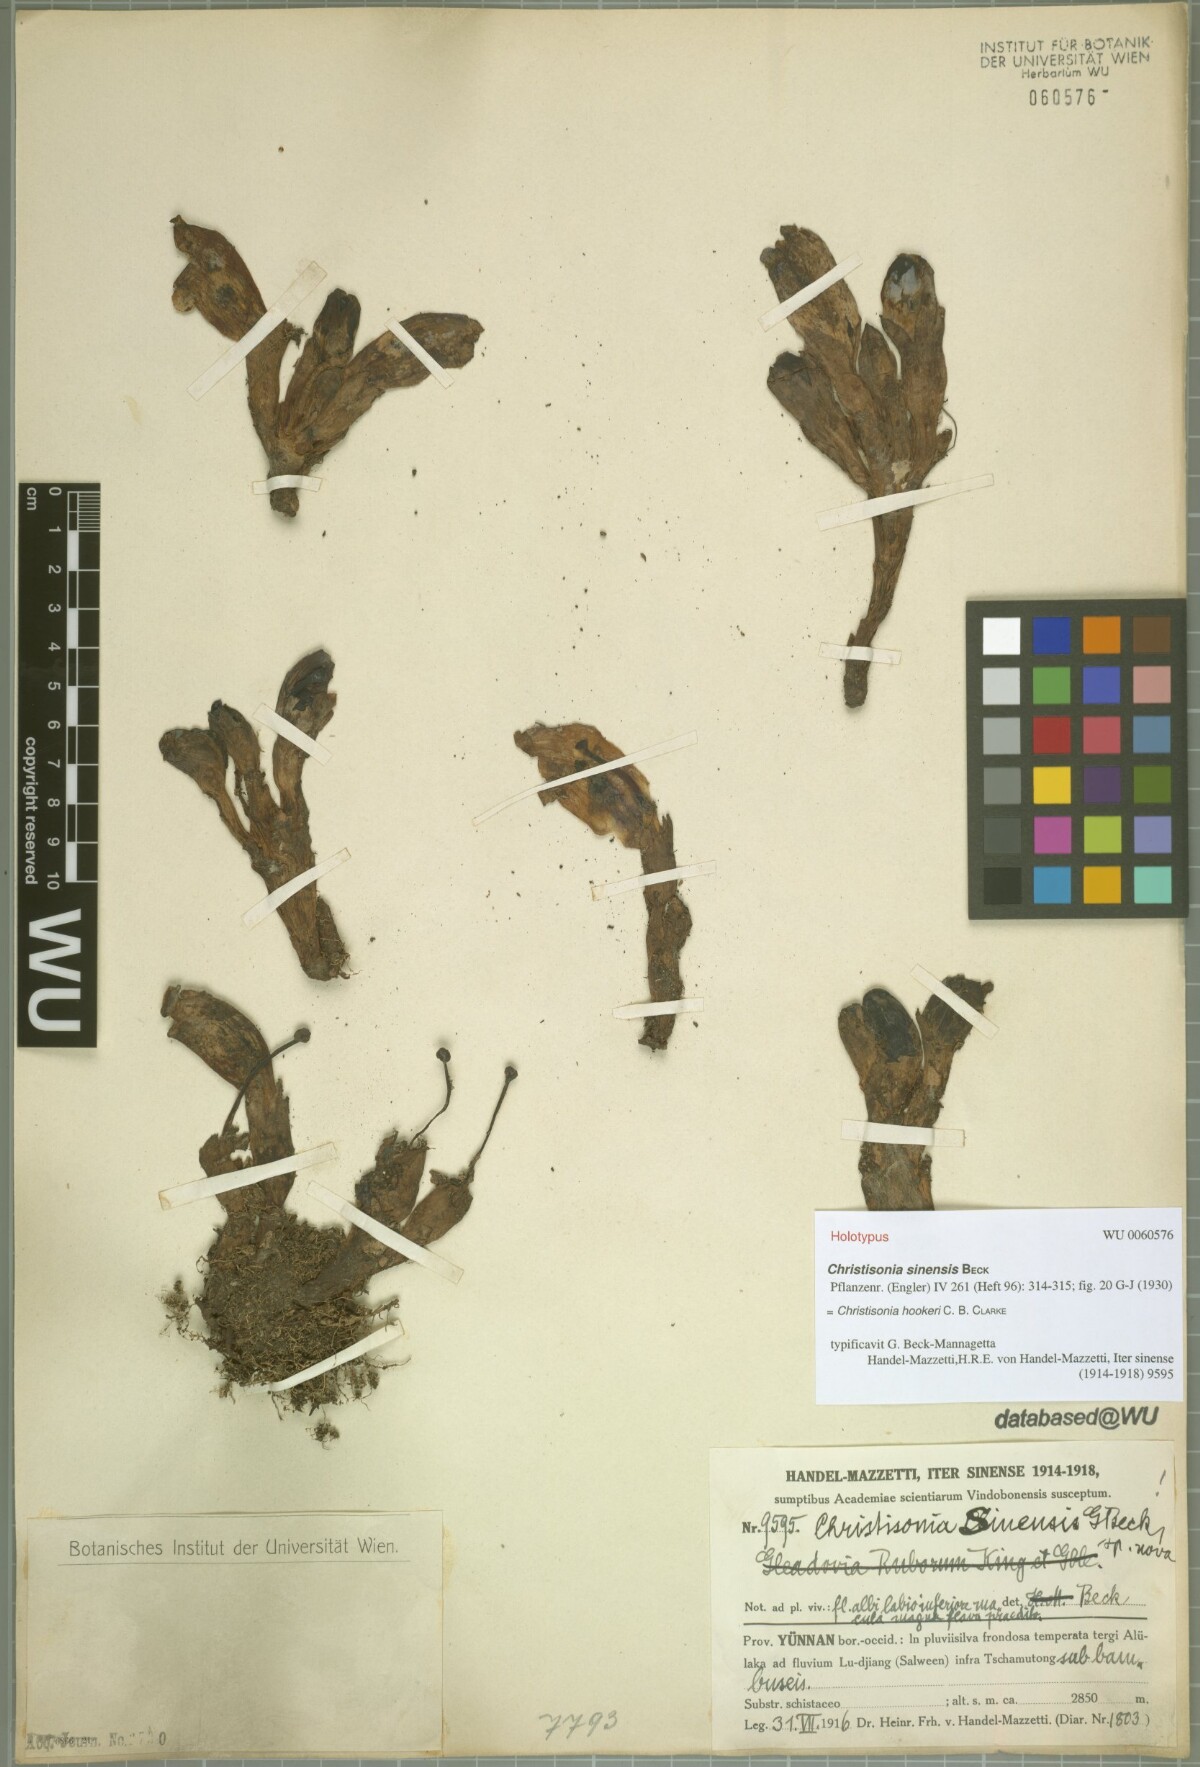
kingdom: Plantae
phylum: Tracheophyta
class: Magnoliopsida
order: Lamiales
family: Orobanchaceae
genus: Christisonia
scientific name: Christisonia hookeri
